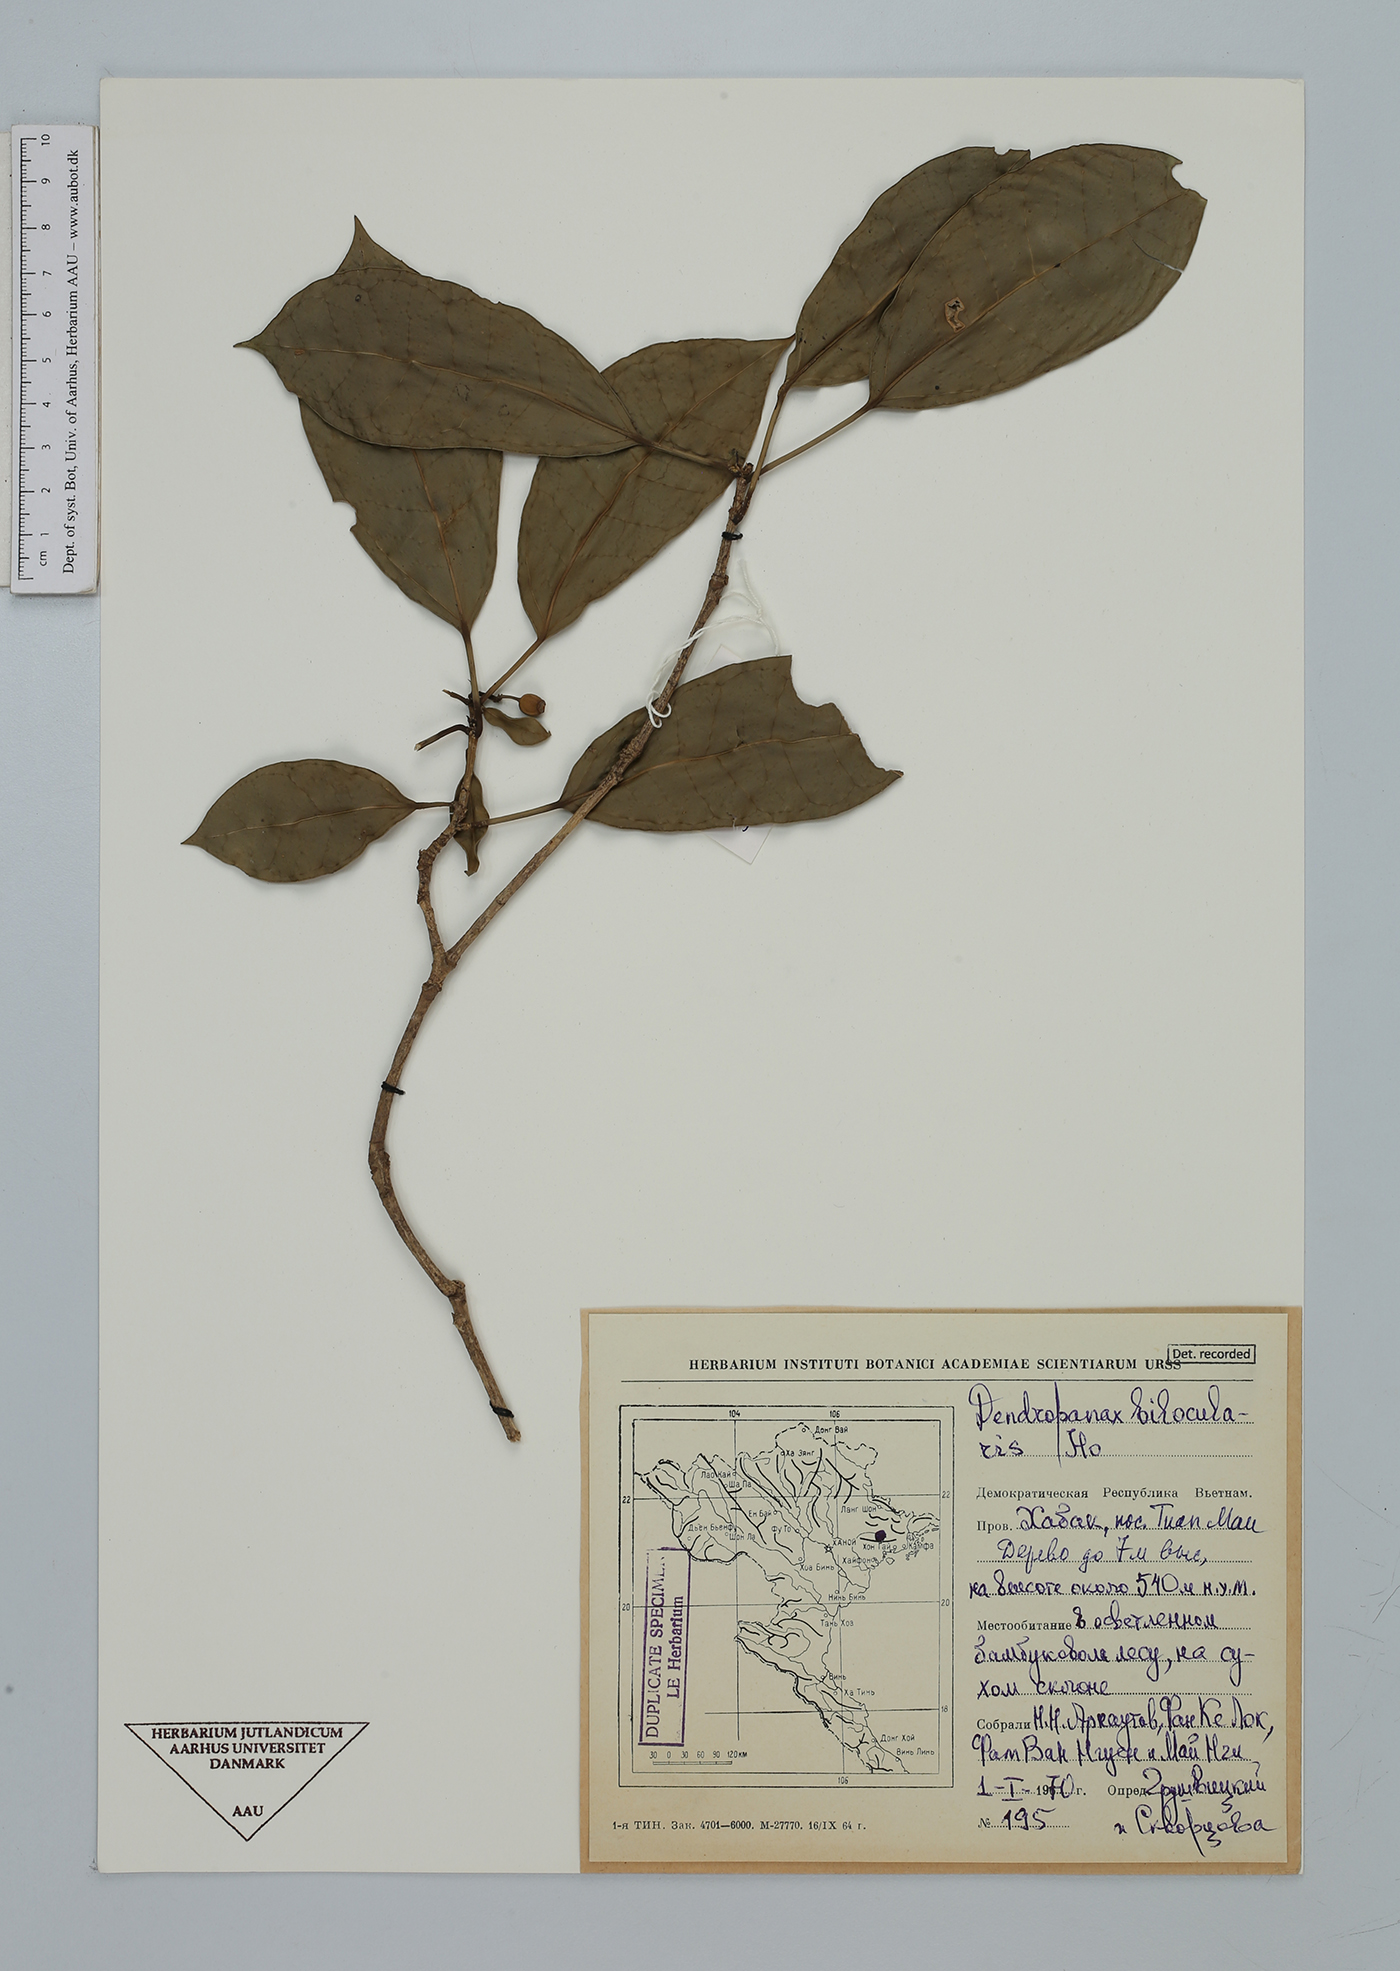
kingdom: Plantae
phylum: Tracheophyta
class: Magnoliopsida
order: Apiales
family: Araliaceae
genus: Dendropanax
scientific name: Dendropanax bilocularis
